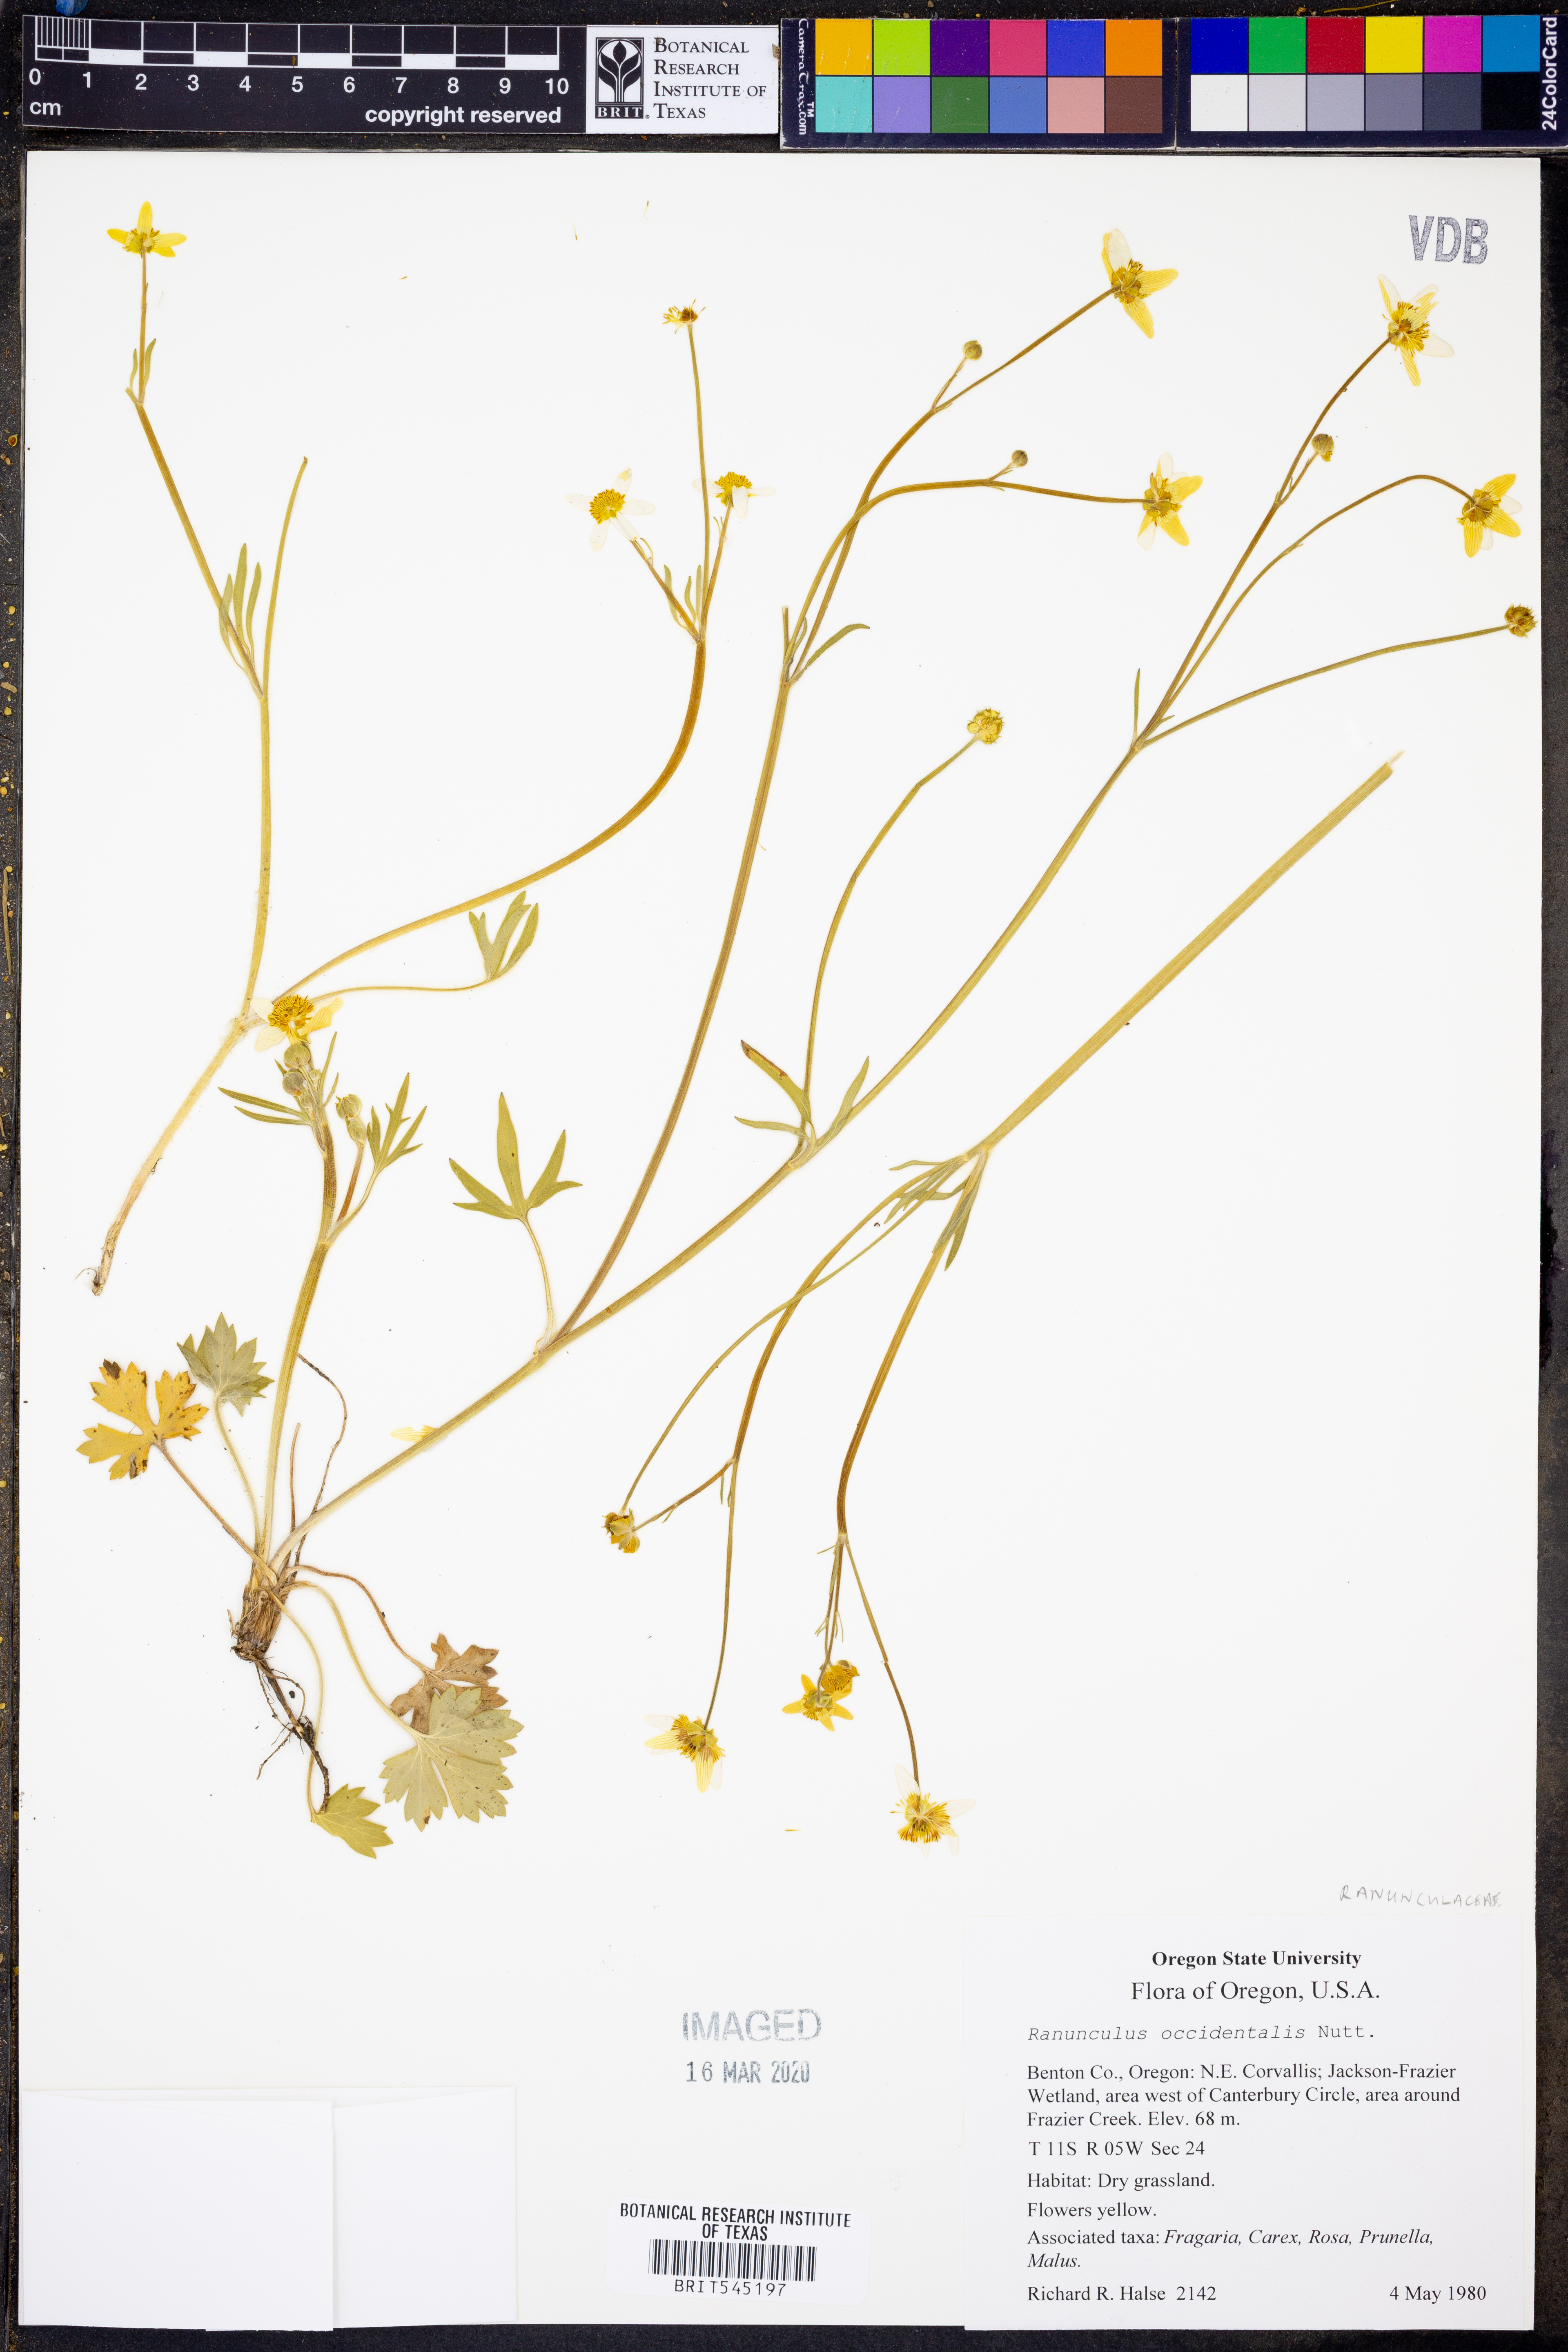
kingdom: Plantae
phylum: Tracheophyta
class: Magnoliopsida
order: Ranunculales
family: Ranunculaceae
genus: Ranunculus
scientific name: Ranunculus occidentalis
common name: Western buttercup
